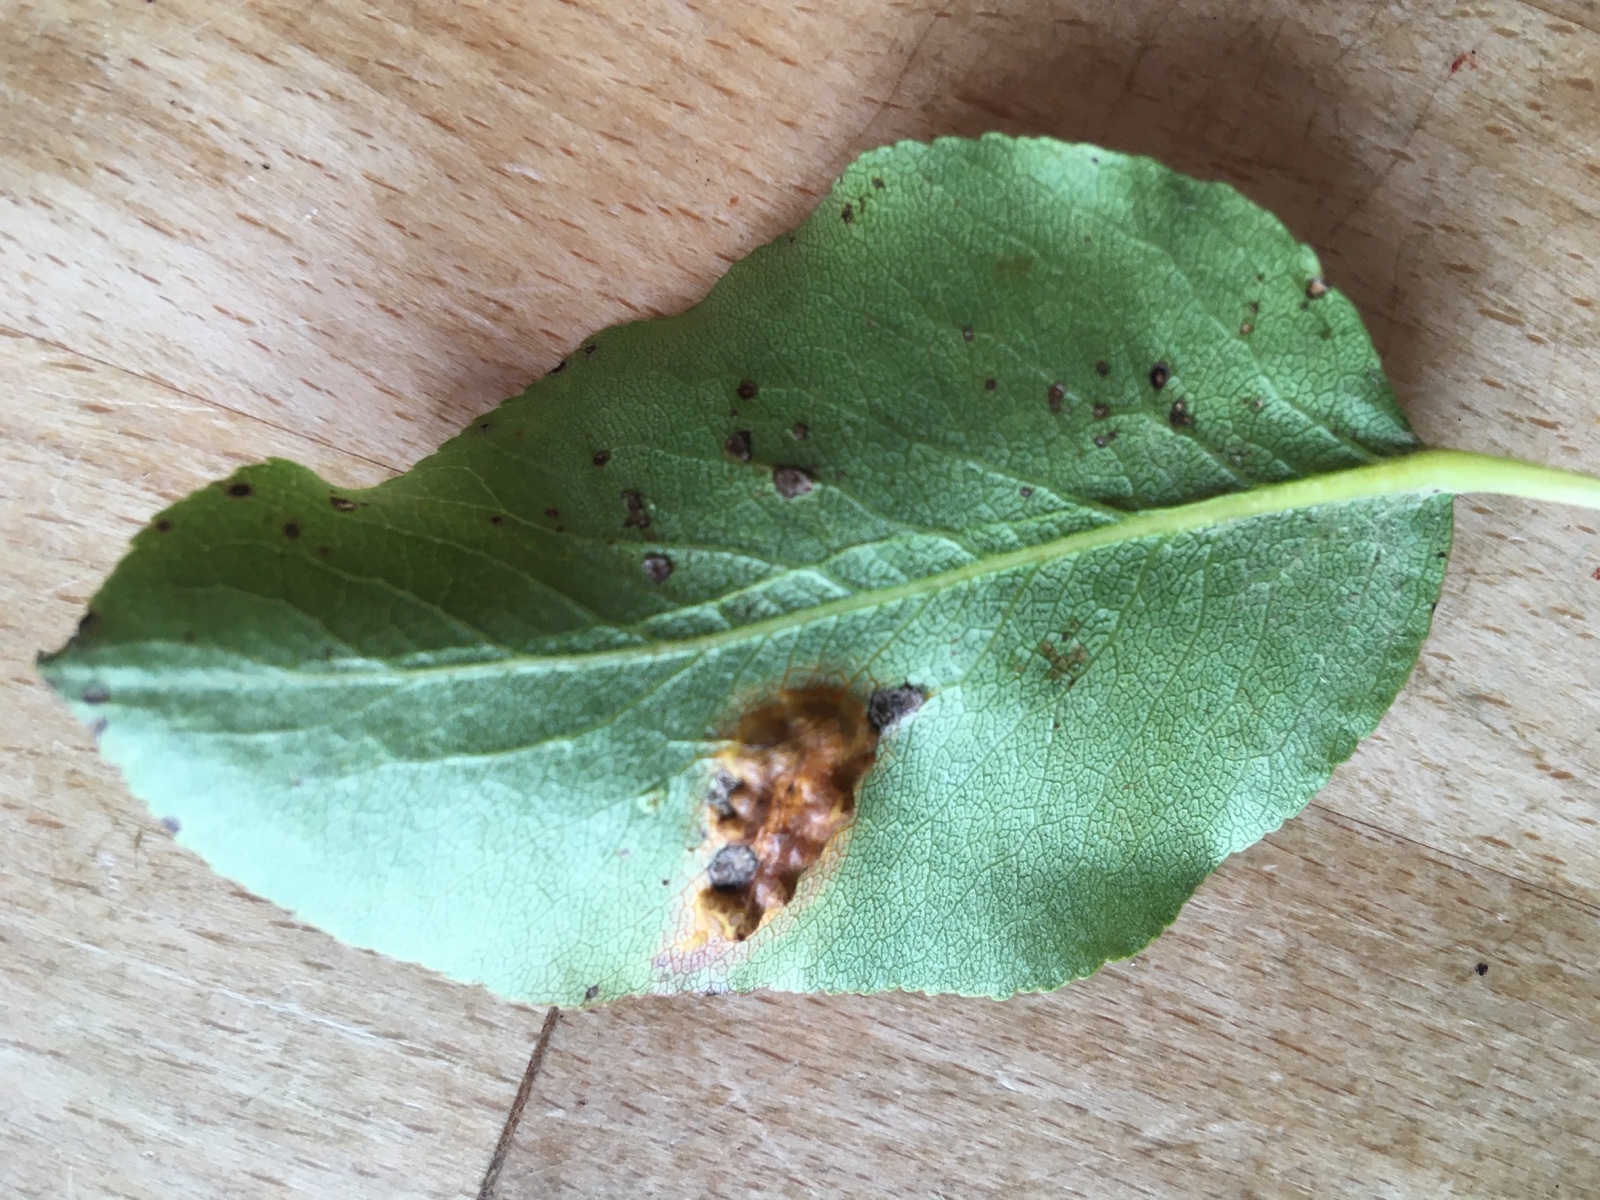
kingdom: Fungi
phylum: Basidiomycota
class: Pucciniomycetes
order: Pucciniales
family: Gymnosporangiaceae
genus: Gymnosporangium
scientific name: Gymnosporangium sabinae
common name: pæregitter-bævrerust
